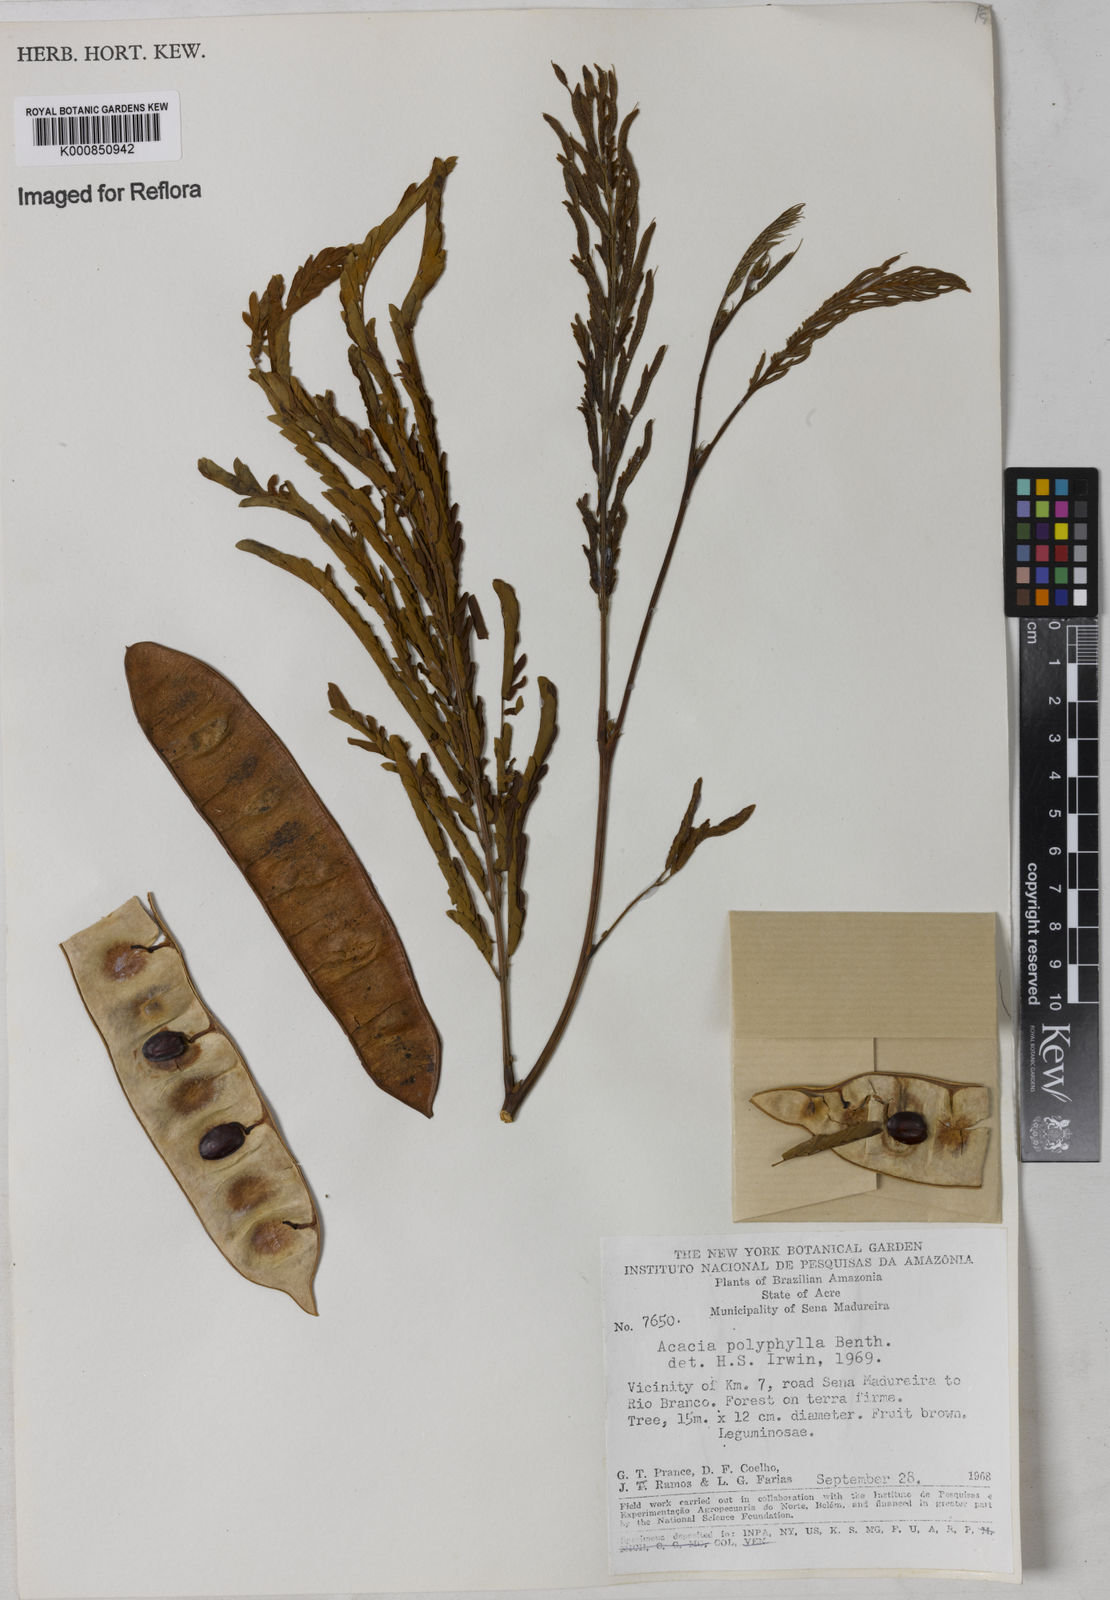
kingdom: Plantae
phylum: Tracheophyta
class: Magnoliopsida
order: Fabales
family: Fabaceae
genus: Senegalia
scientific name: Senegalia polyphylla
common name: White-tamarind
